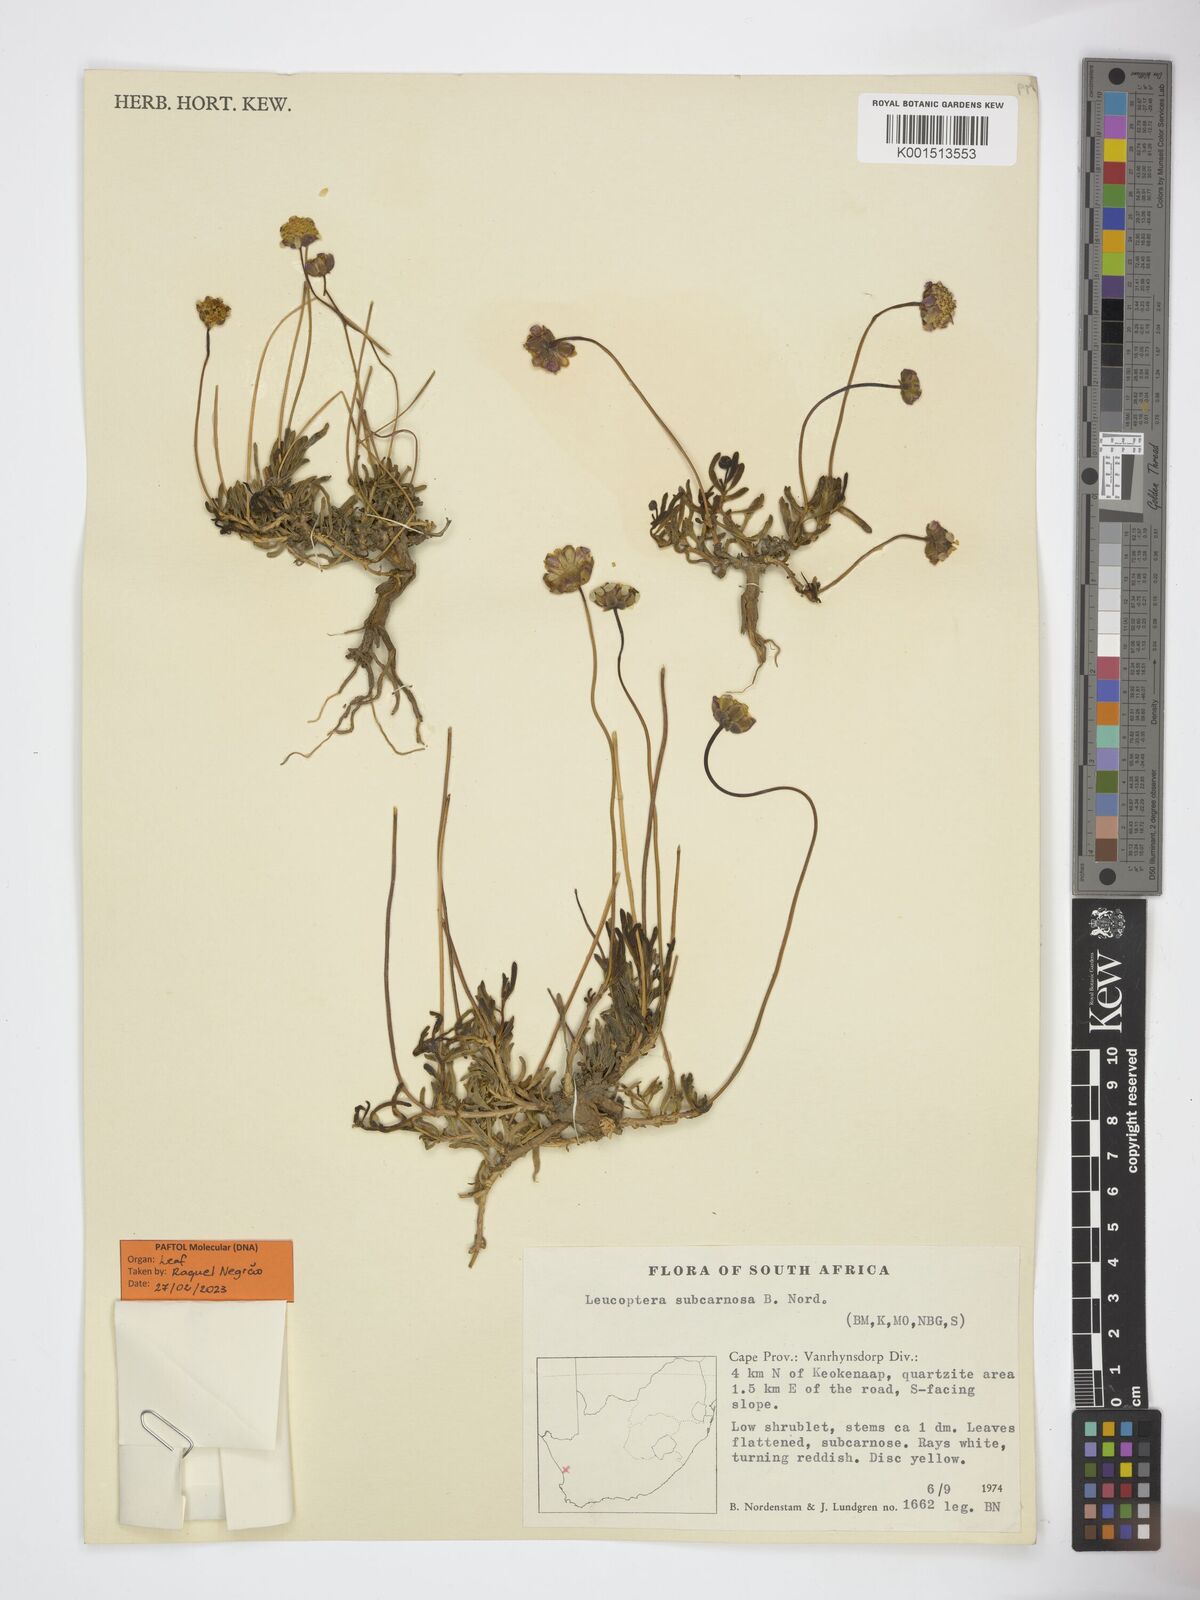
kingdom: Plantae
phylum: Tracheophyta
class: Magnoliopsida
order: Asterales
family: Asteraceae
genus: Leucoptera
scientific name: Leucoptera subcarnosa
